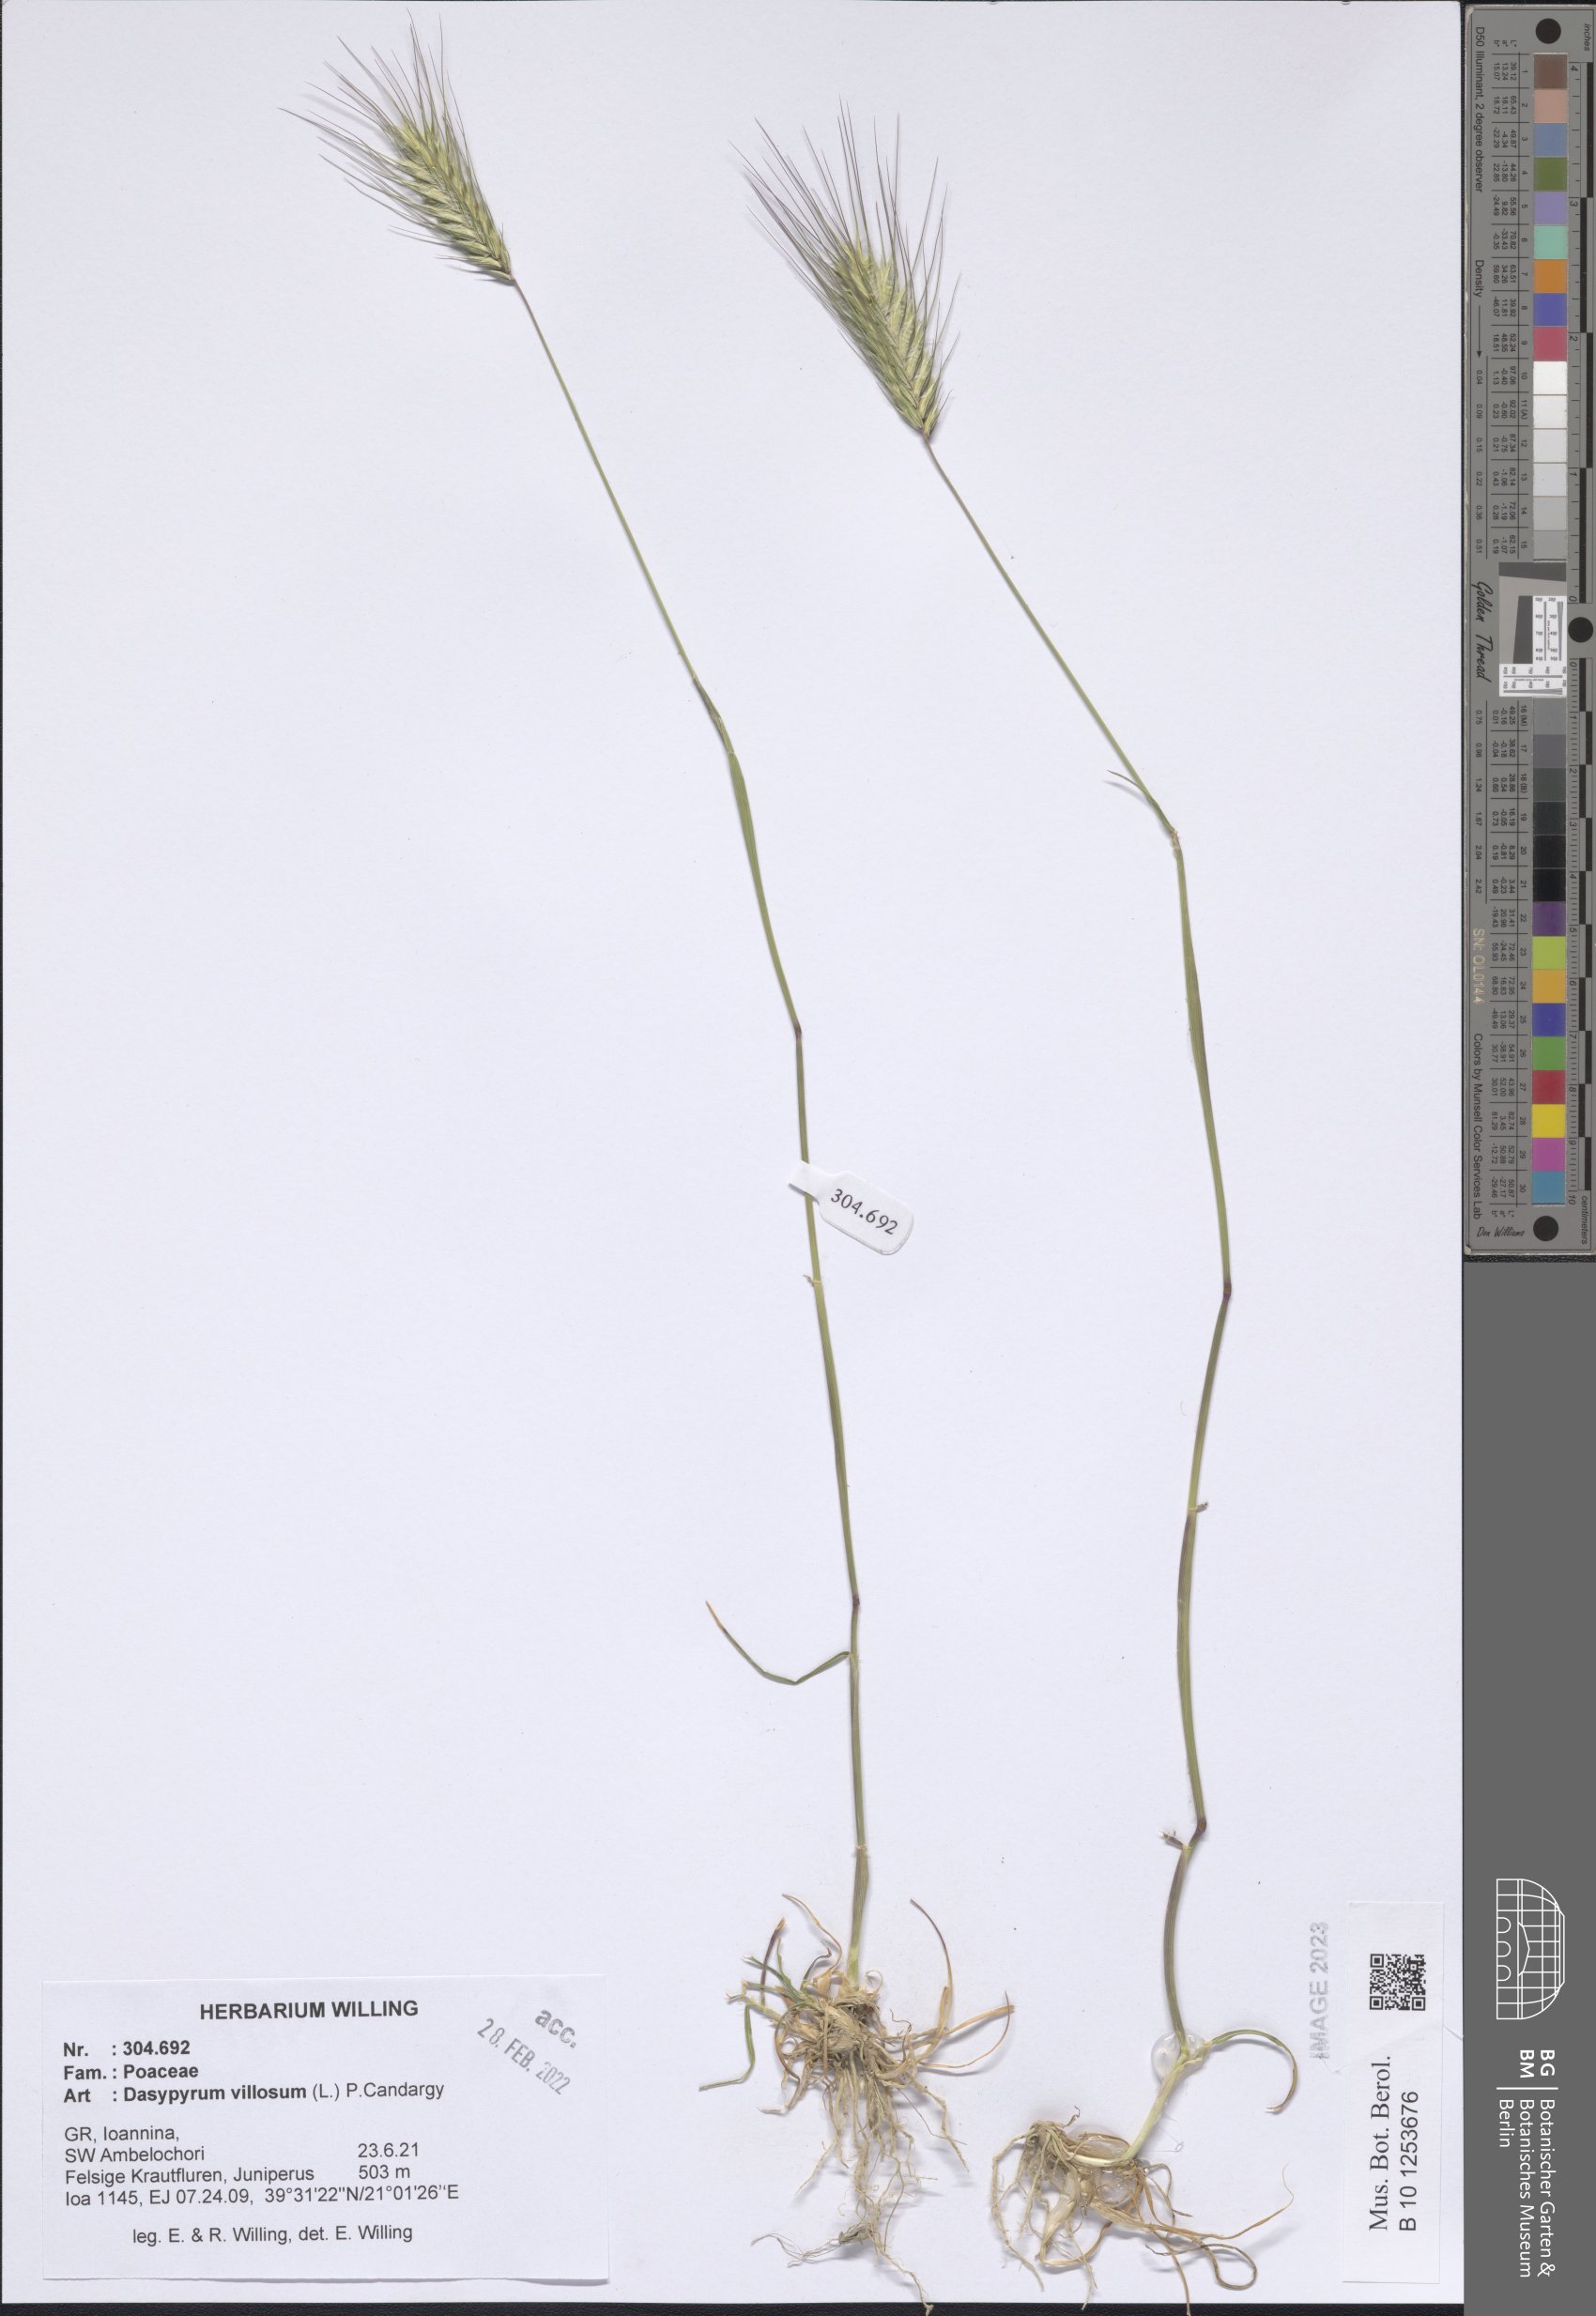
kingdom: Plantae
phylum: Tracheophyta
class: Liliopsida
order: Poales
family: Poaceae
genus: Dasypyrum
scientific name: Dasypyrum villosum
